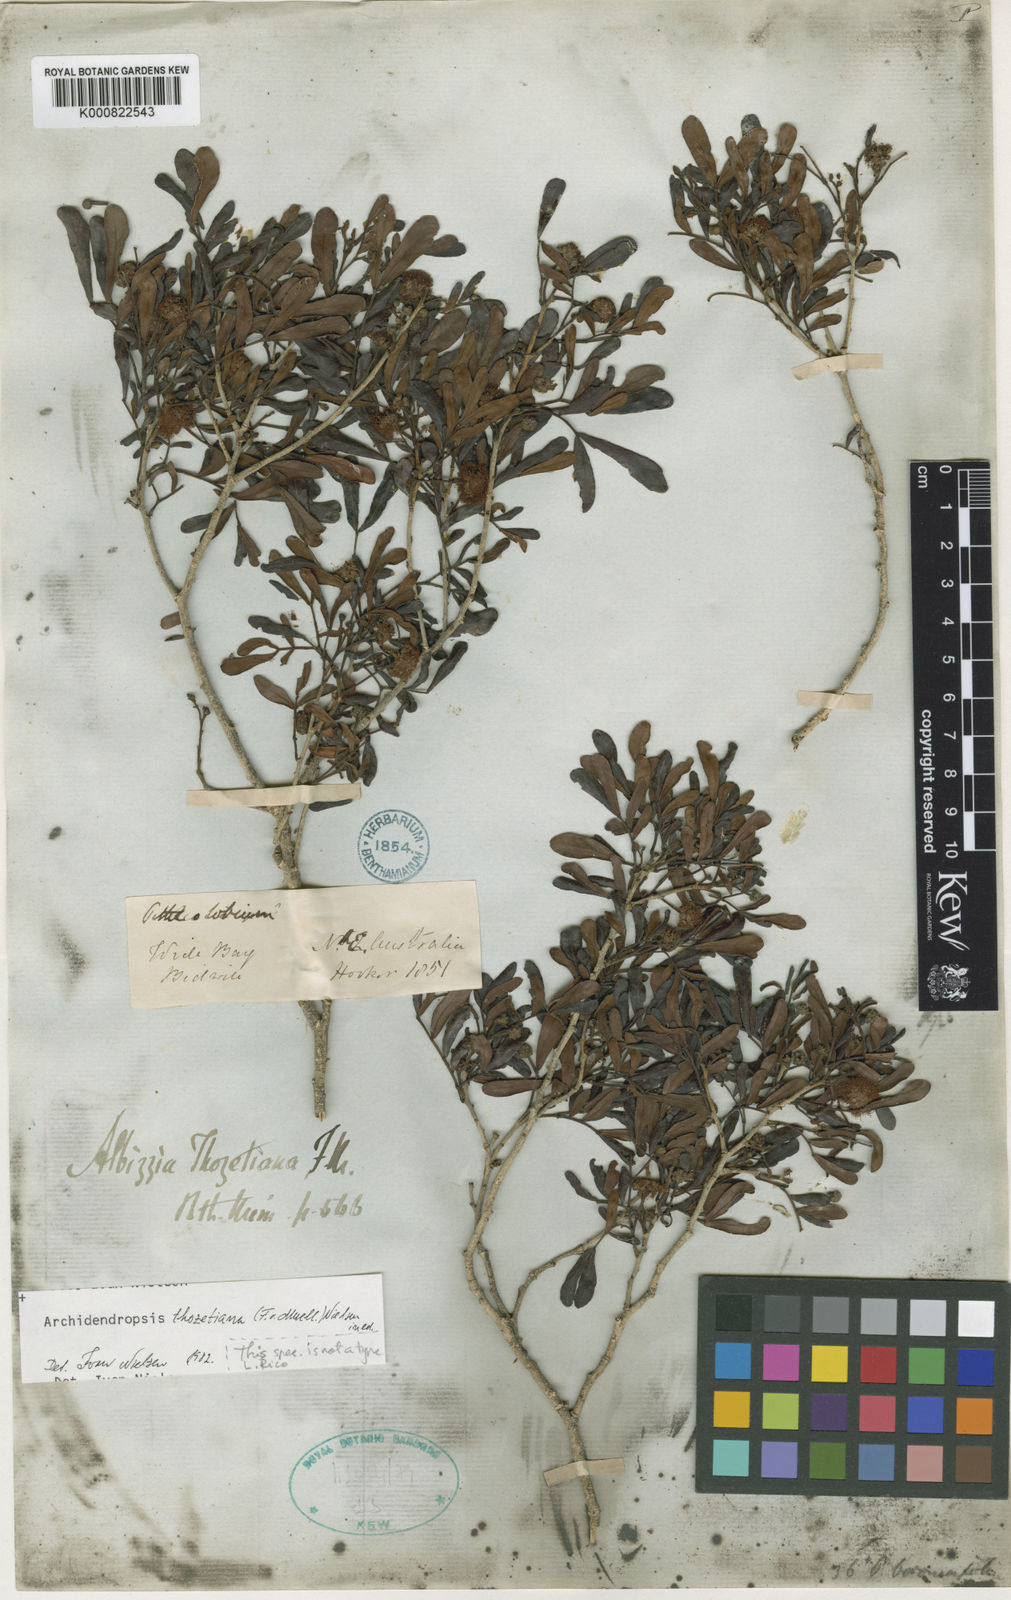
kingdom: Plantae
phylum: Tracheophyta
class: Magnoliopsida
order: Fabales
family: Fabaceae
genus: Archidendropsis
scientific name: Archidendropsis thozetiana
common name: Scrub teatree
